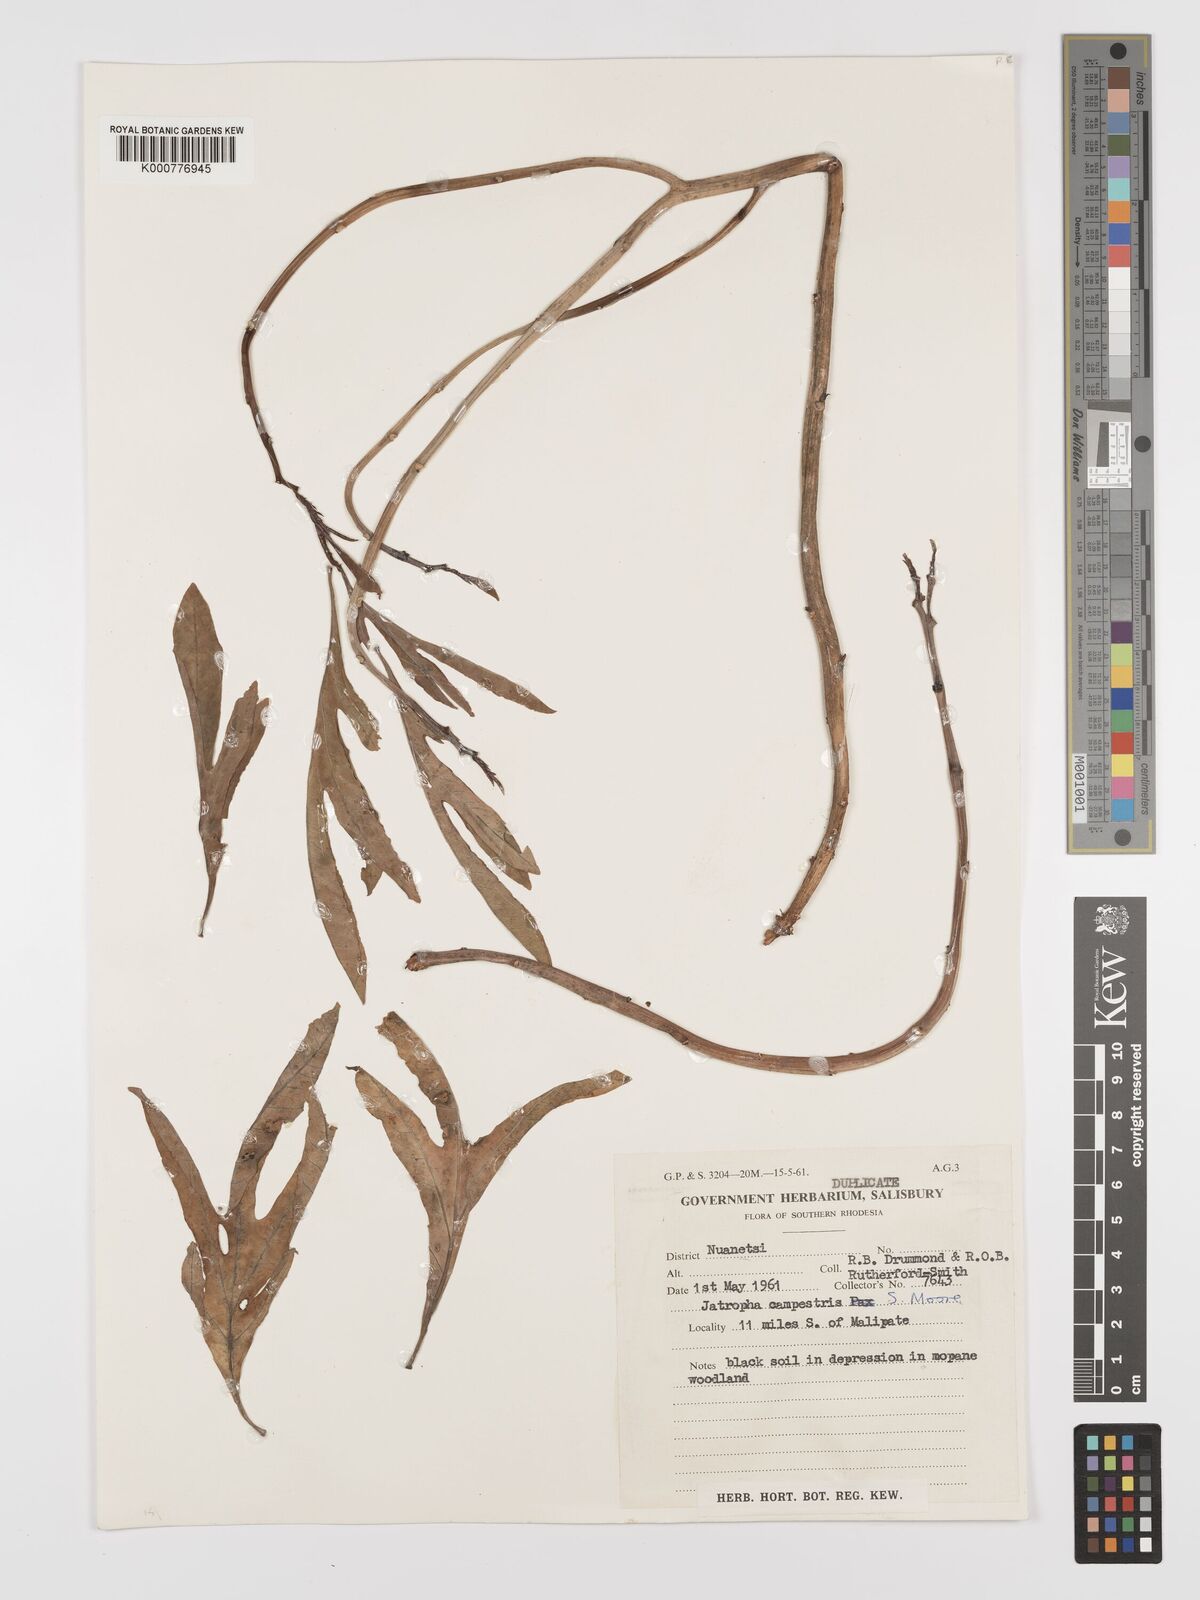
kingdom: Plantae
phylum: Tracheophyta
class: Magnoliopsida
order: Malpighiales
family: Euphorbiaceae
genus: Jatropha
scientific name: Jatropha campestris
